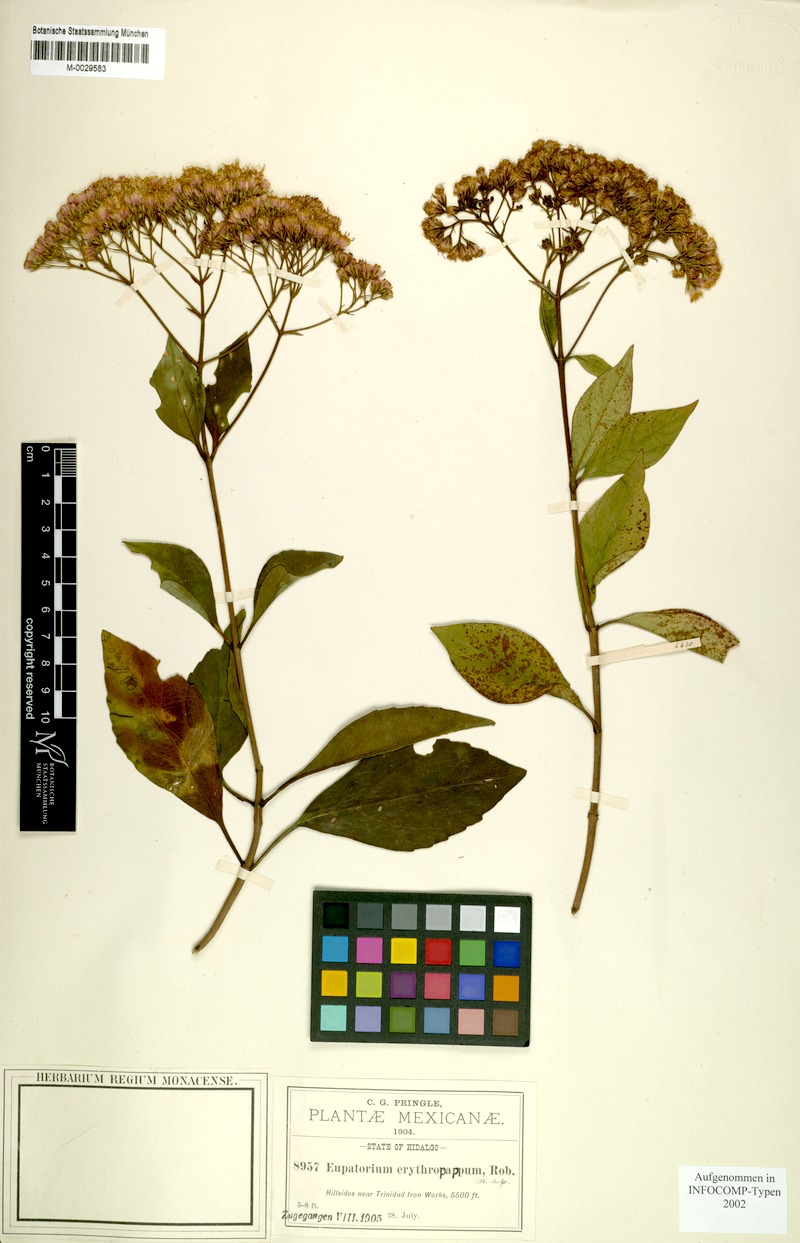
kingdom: Plantae
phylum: Tracheophyta
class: Magnoliopsida
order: Asterales
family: Asteraceae
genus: Ageratina
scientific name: Ageratina ligustrina
